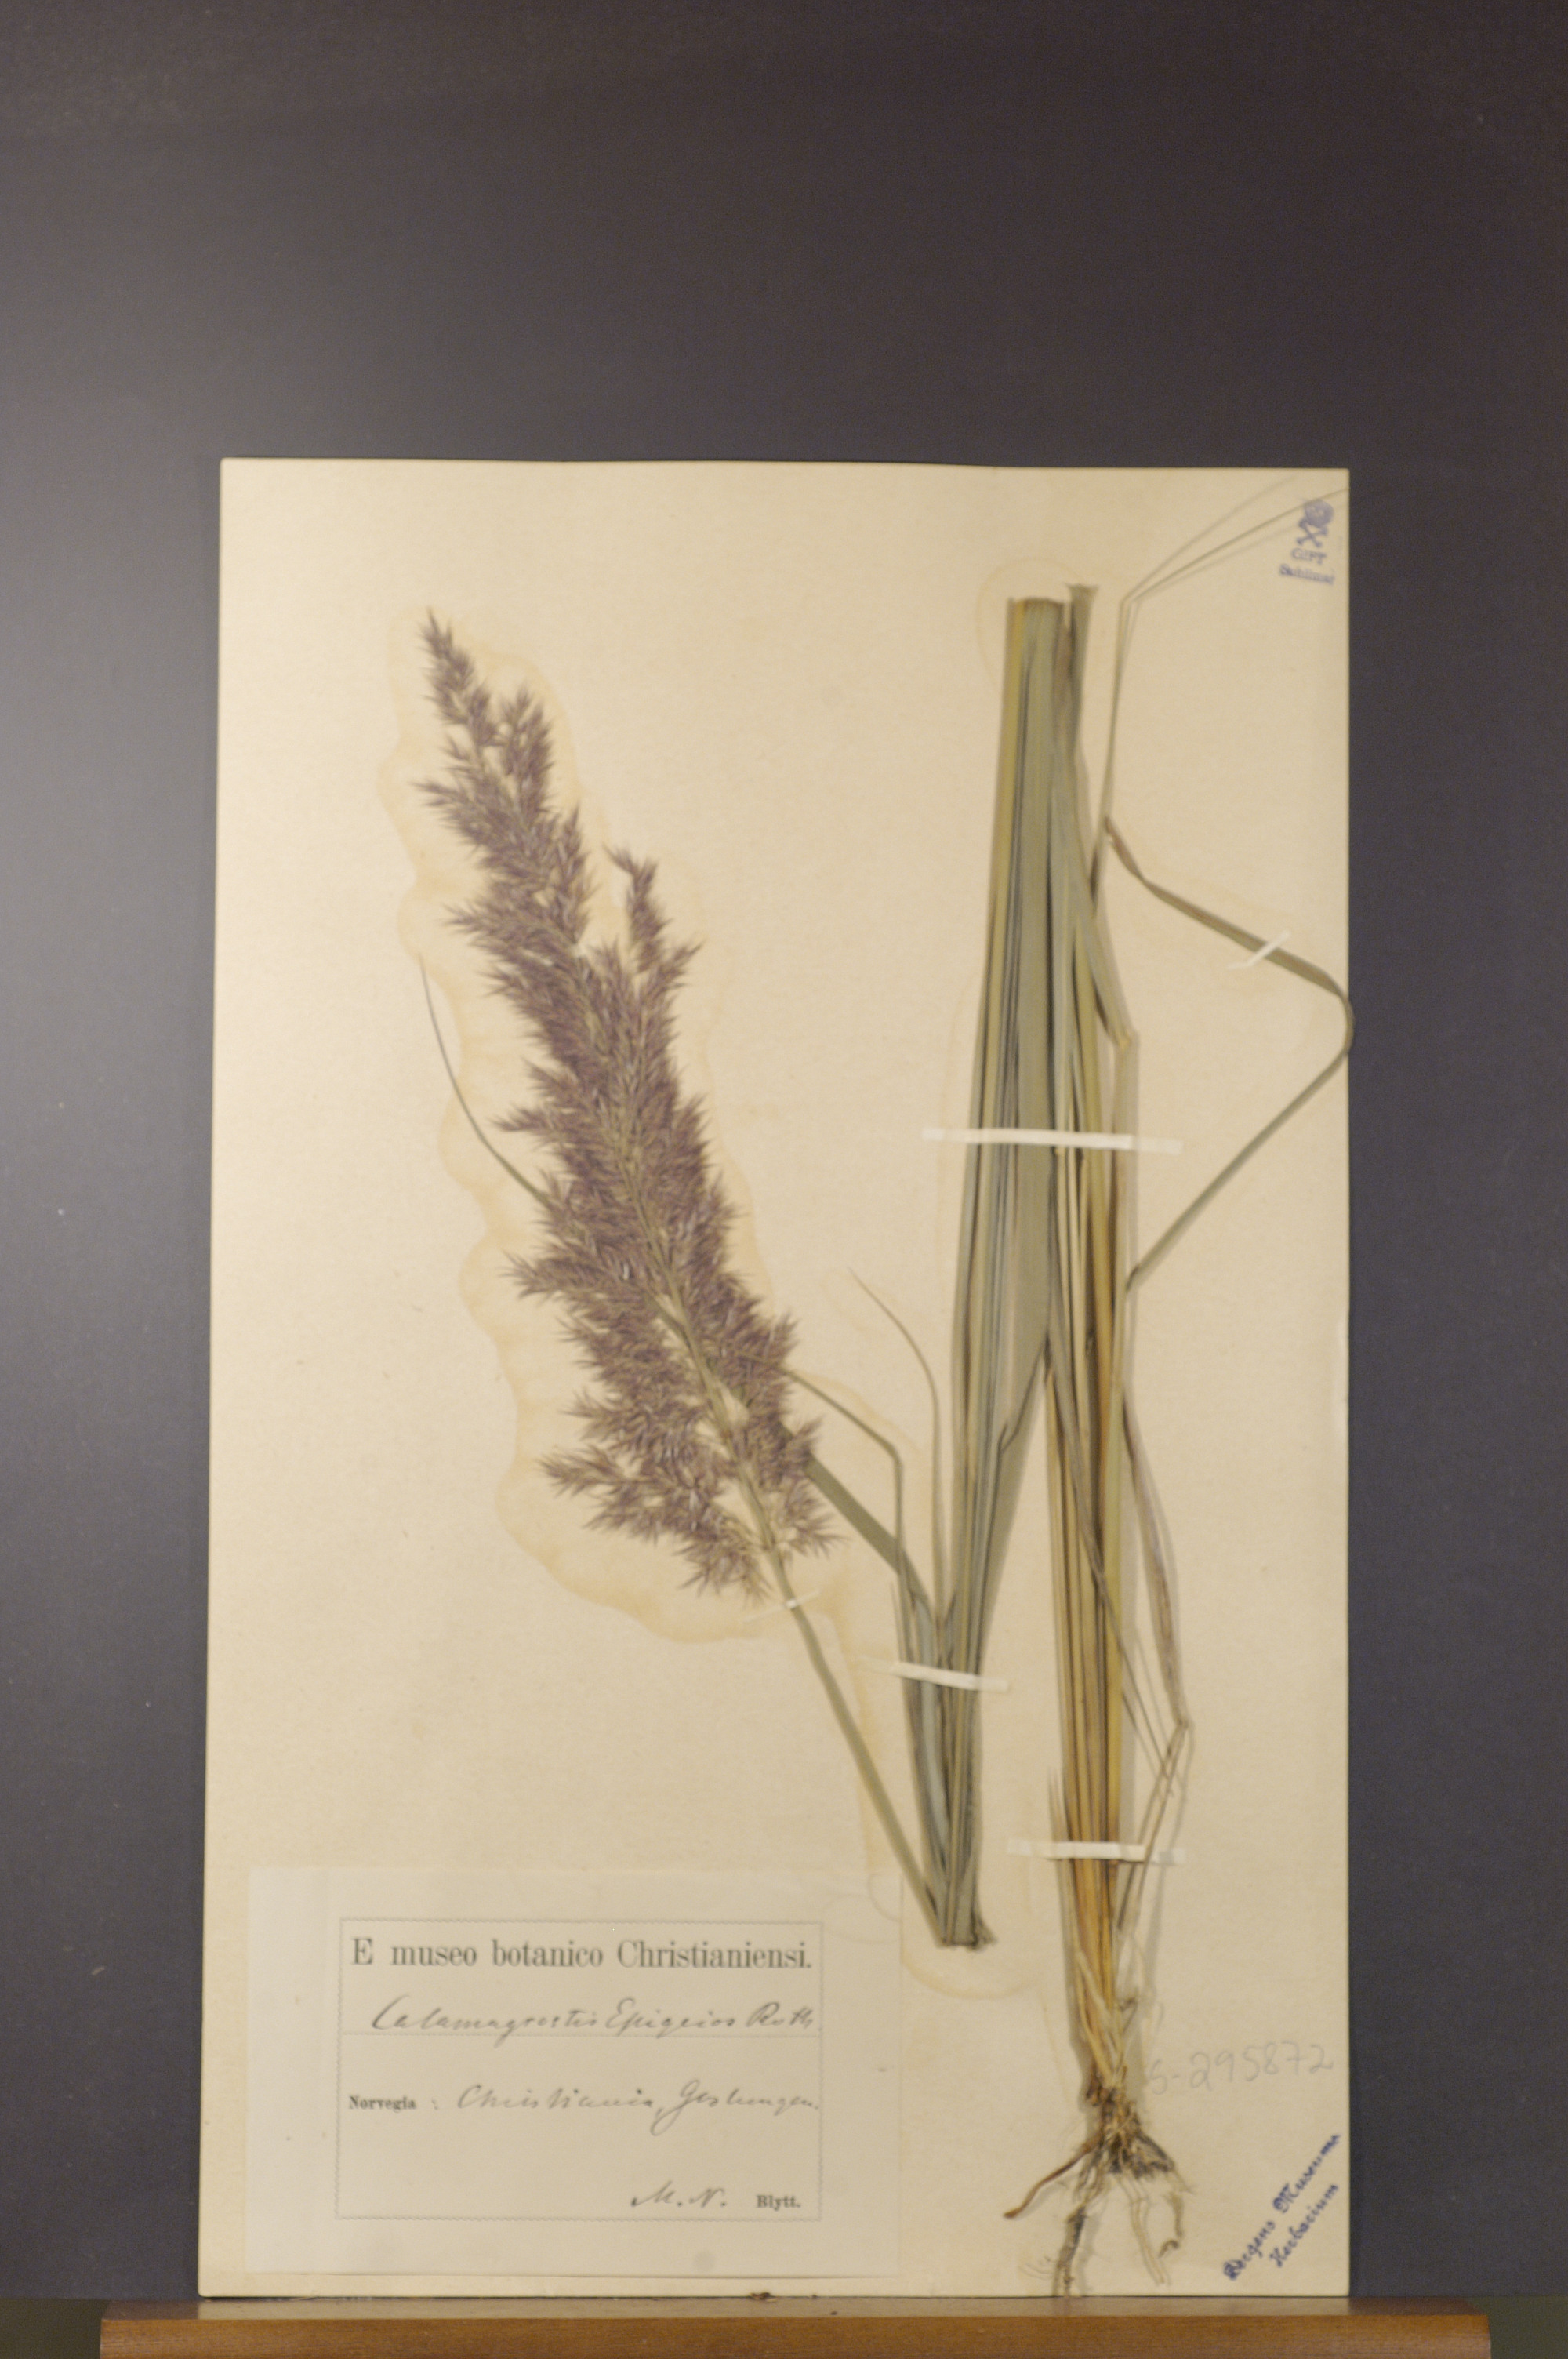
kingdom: Plantae
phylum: Tracheophyta
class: Liliopsida
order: Poales
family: Poaceae
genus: Calamagrostis
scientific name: Calamagrostis epigejos
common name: Wood small-reed
